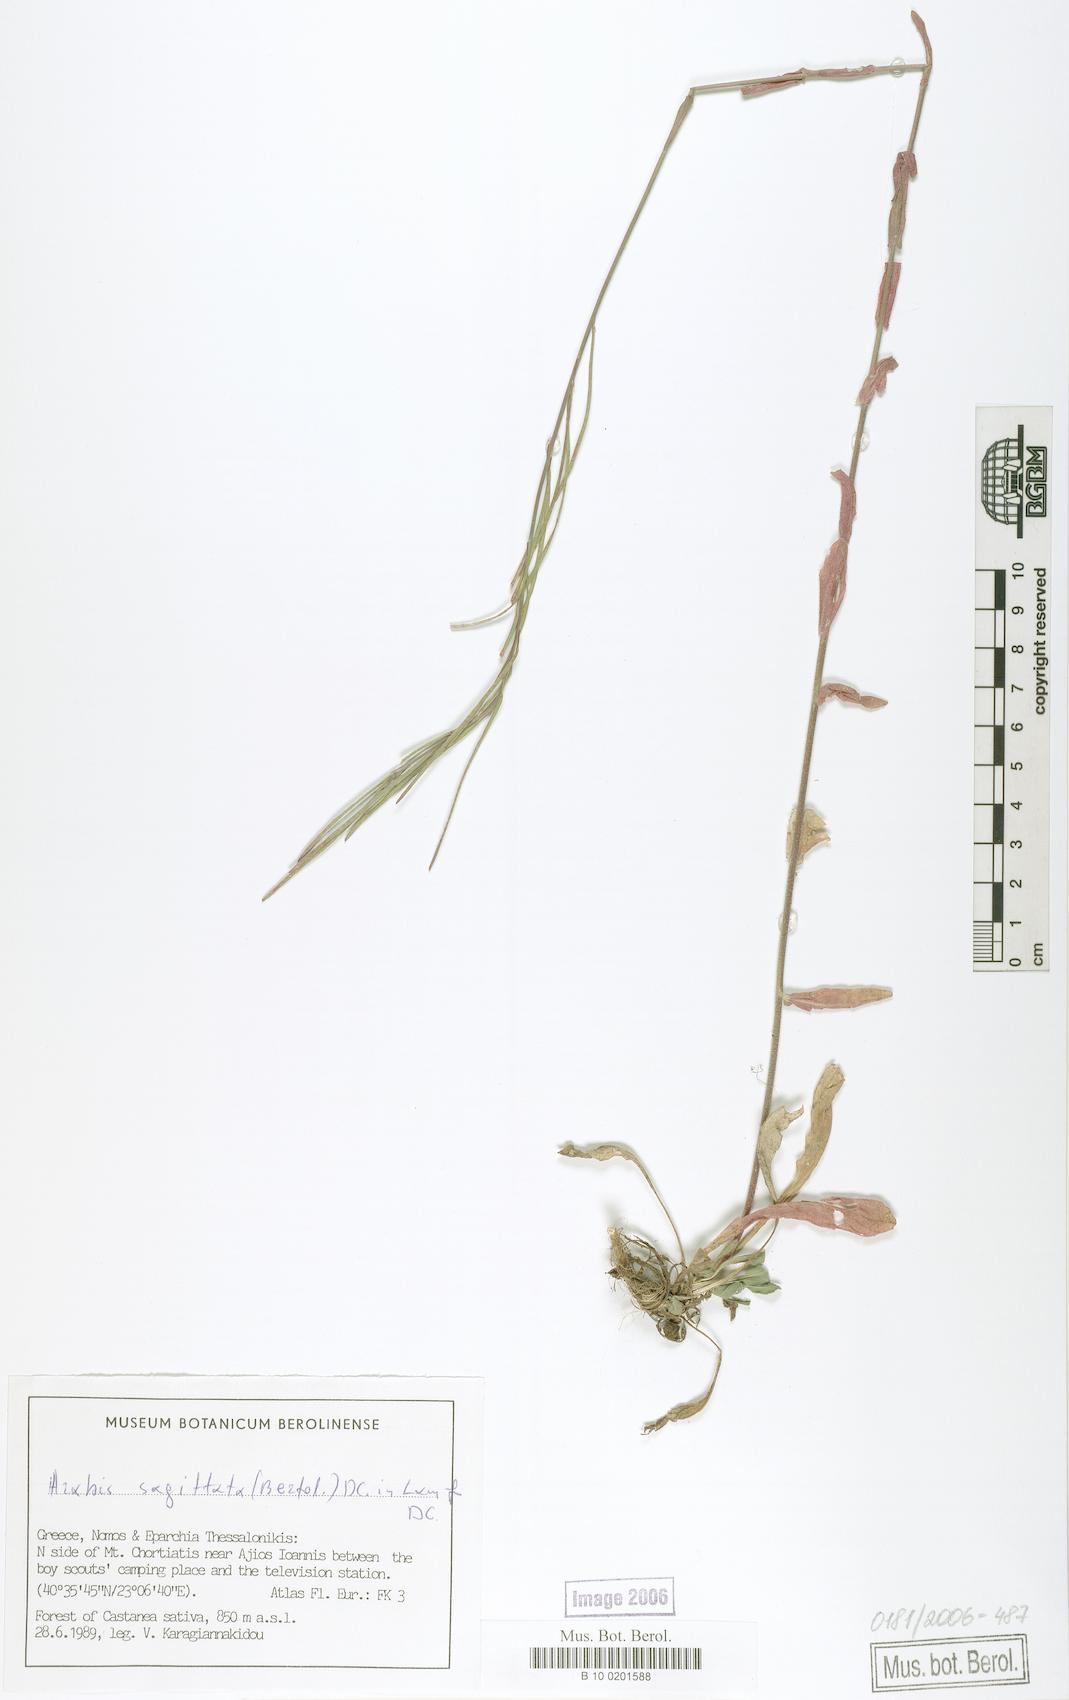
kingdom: Plantae
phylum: Tracheophyta
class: Magnoliopsida
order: Brassicales
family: Brassicaceae
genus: Arabis
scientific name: Arabis sagittata
